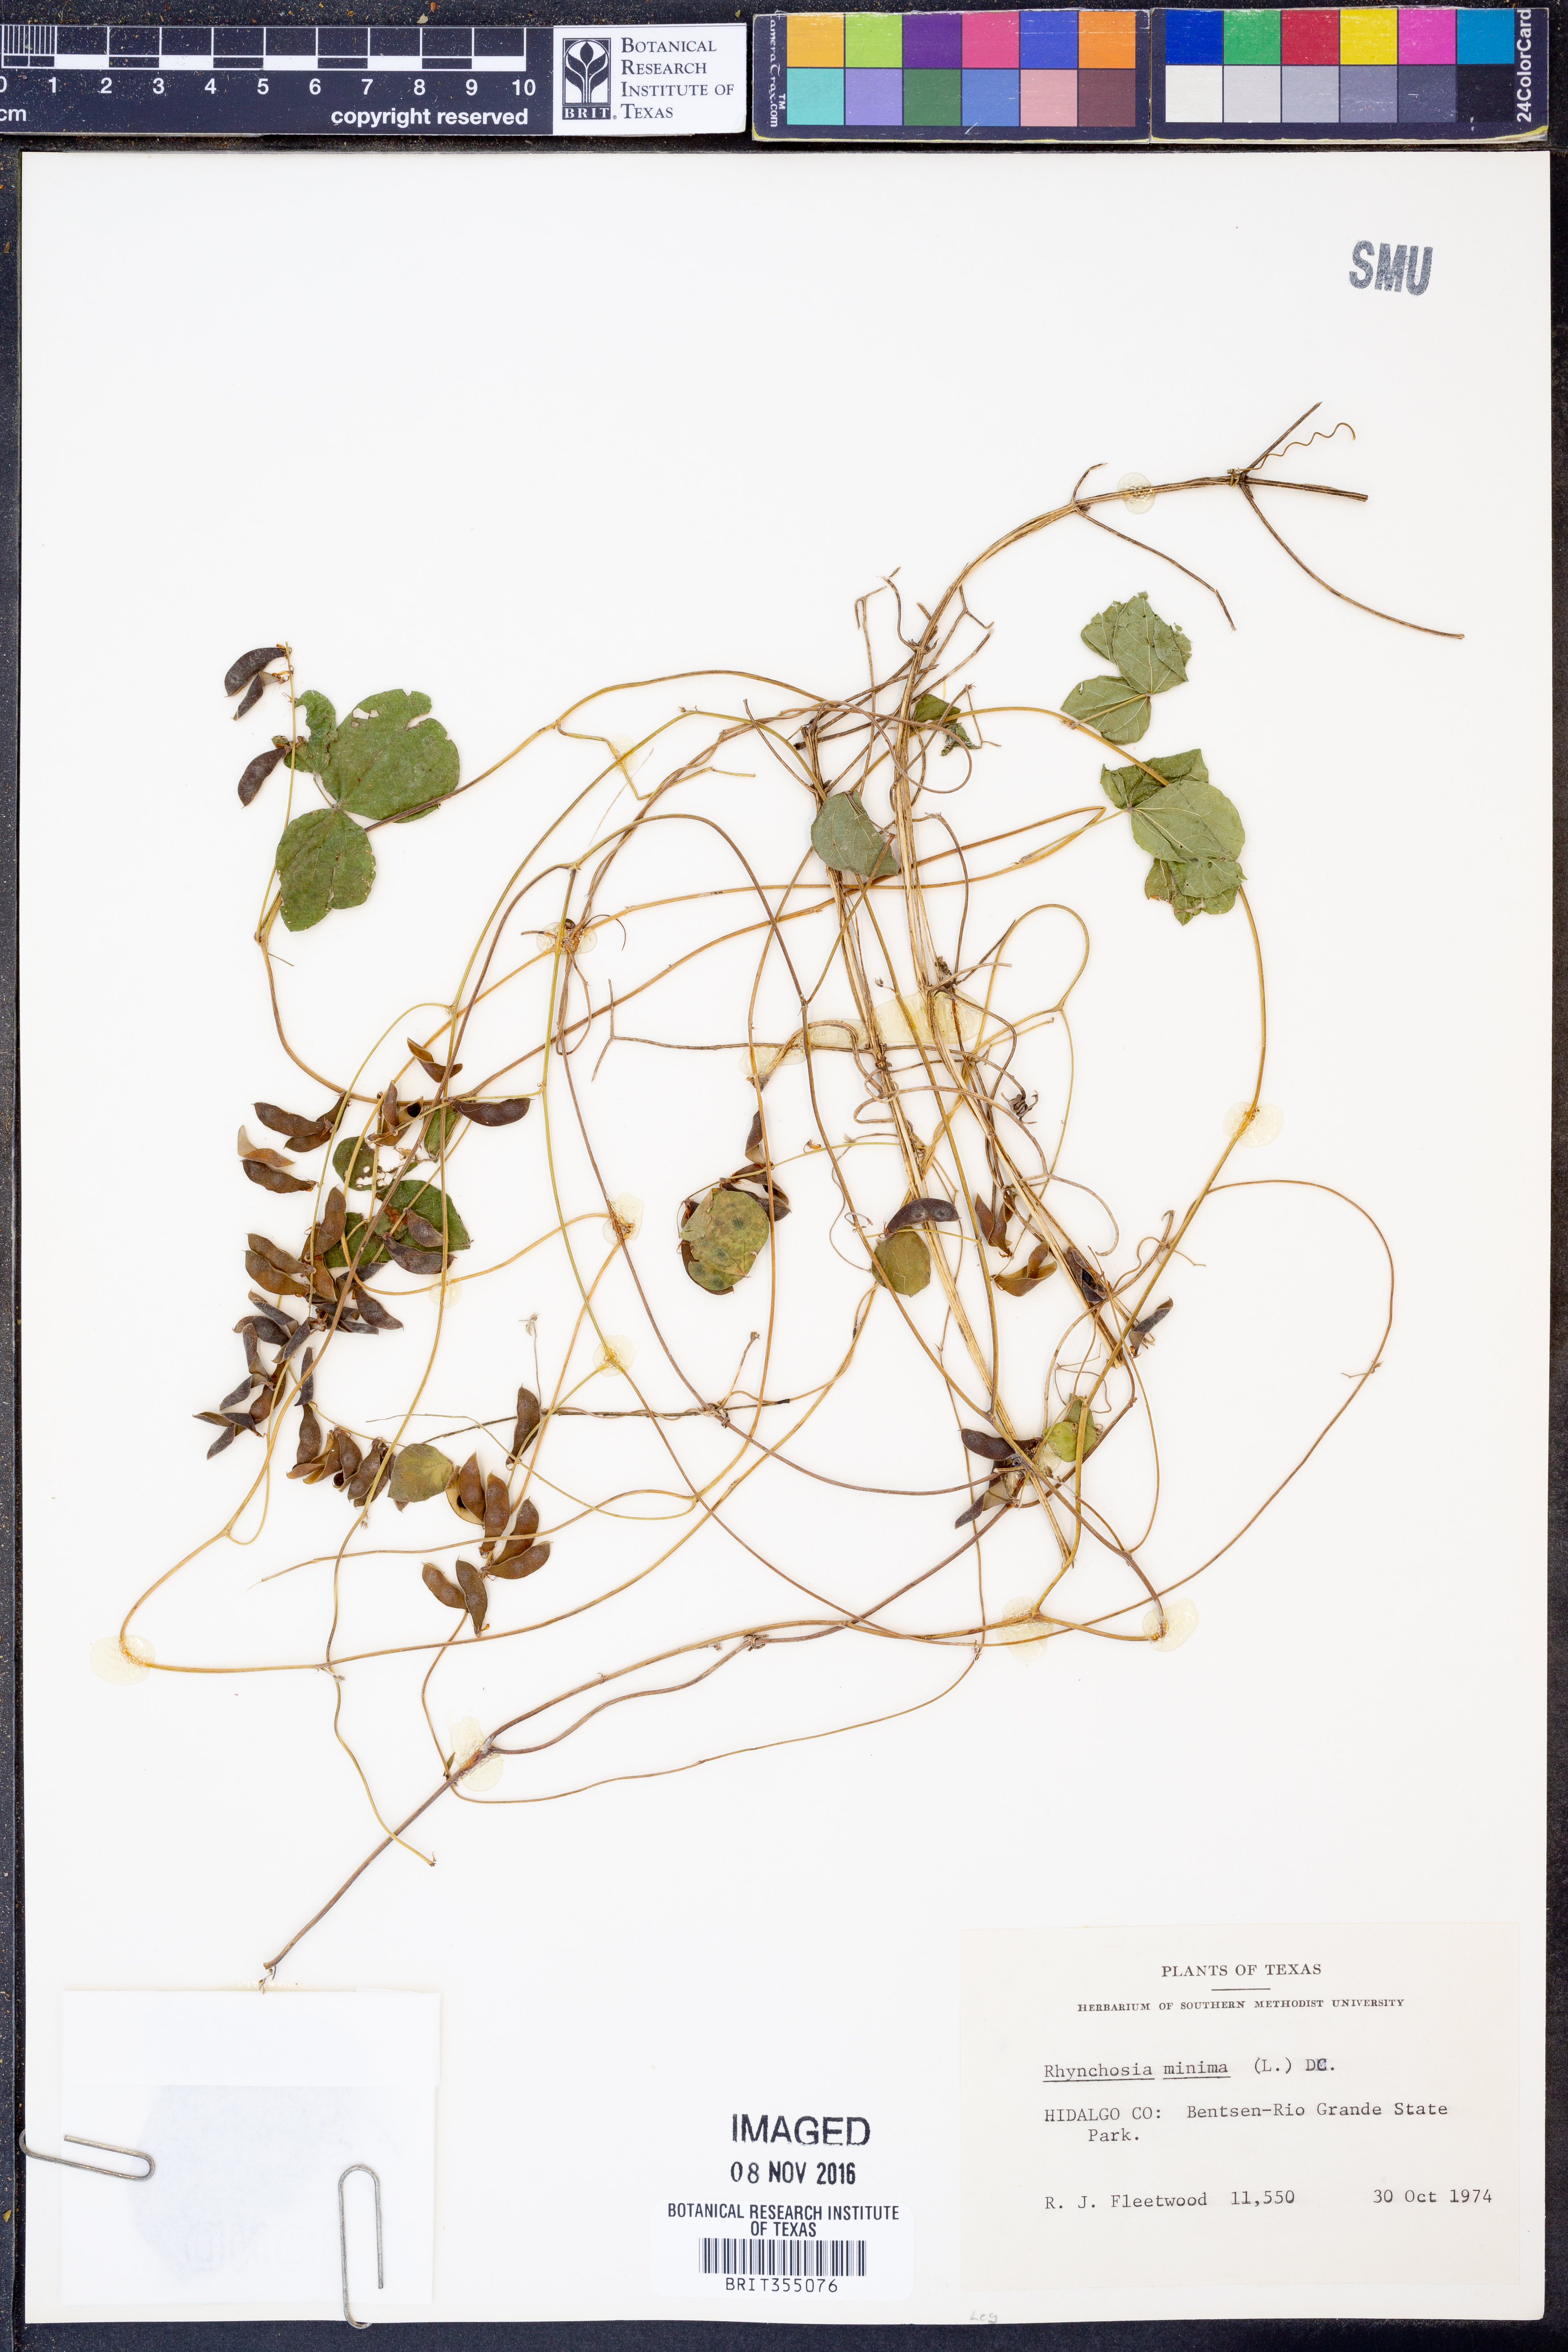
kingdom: Plantae
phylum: Tracheophyta
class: Magnoliopsida
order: Fabales
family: Fabaceae
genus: Rhynchosia
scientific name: Rhynchosia minima
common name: Least snoutbean
